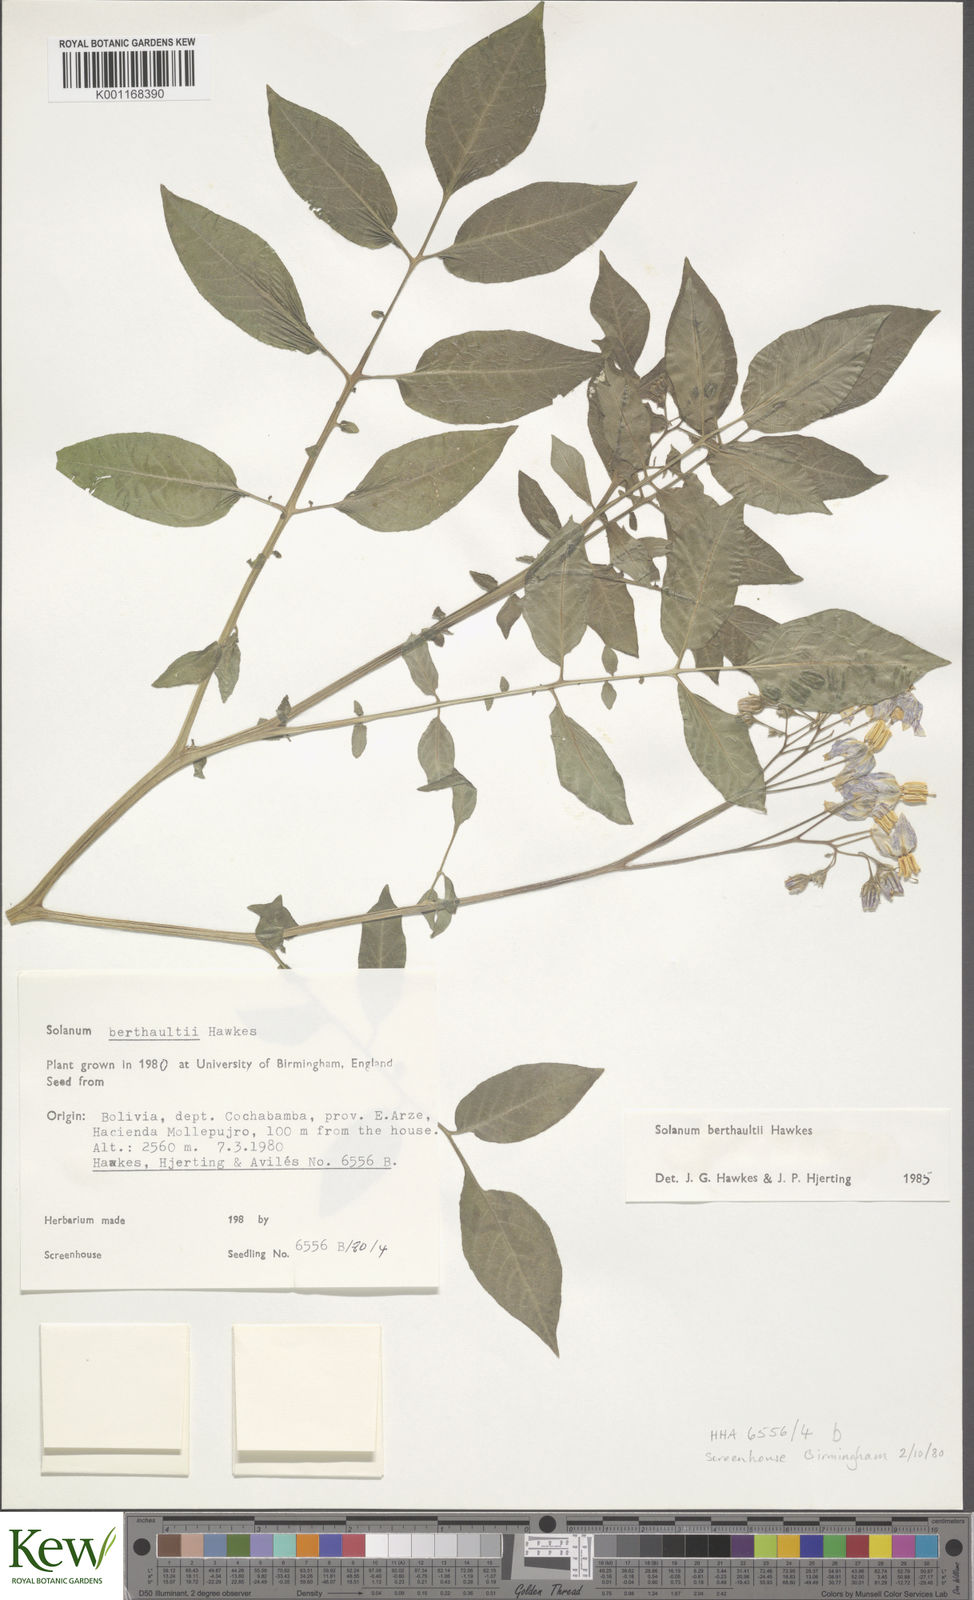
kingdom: Plantae
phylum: Tracheophyta
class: Magnoliopsida
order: Solanales
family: Solanaceae
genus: Solanum
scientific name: Solanum berthaultii
